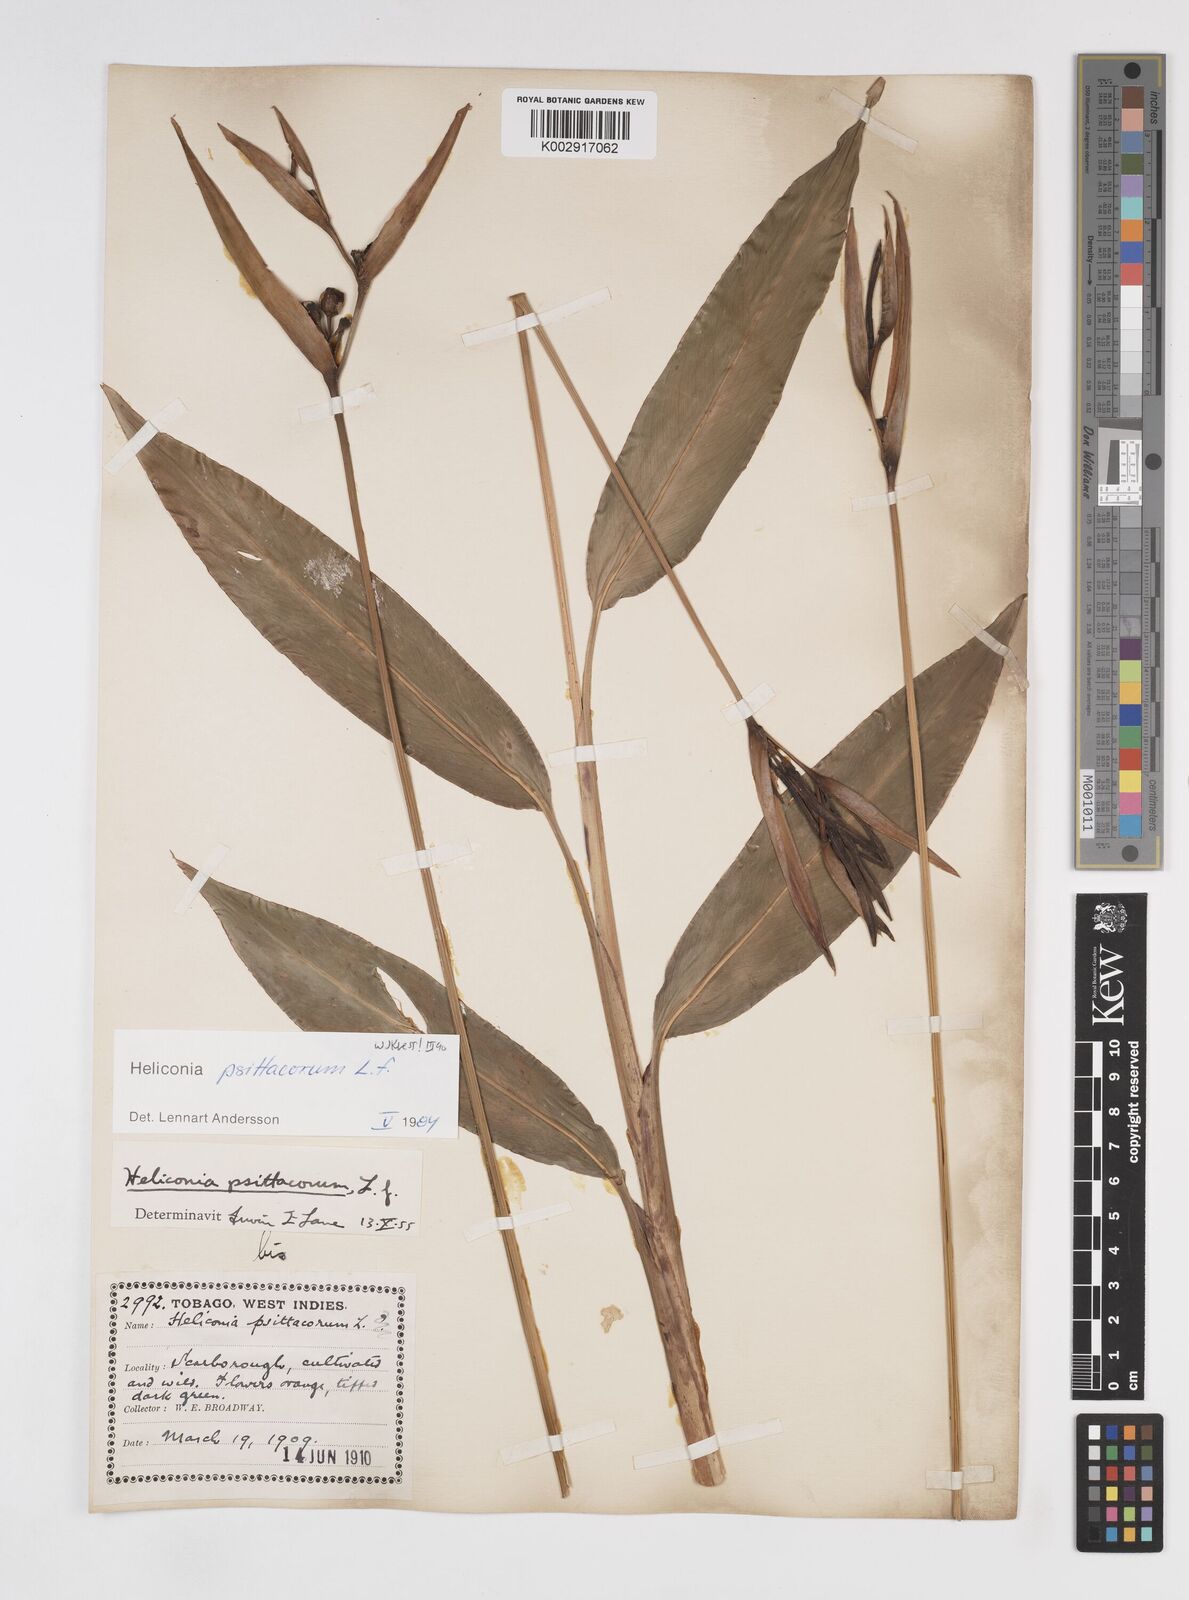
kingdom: Plantae
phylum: Tracheophyta
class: Liliopsida
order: Zingiberales
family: Heliconiaceae
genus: Heliconia
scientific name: Heliconia psittacorum
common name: Parrot's-flower
